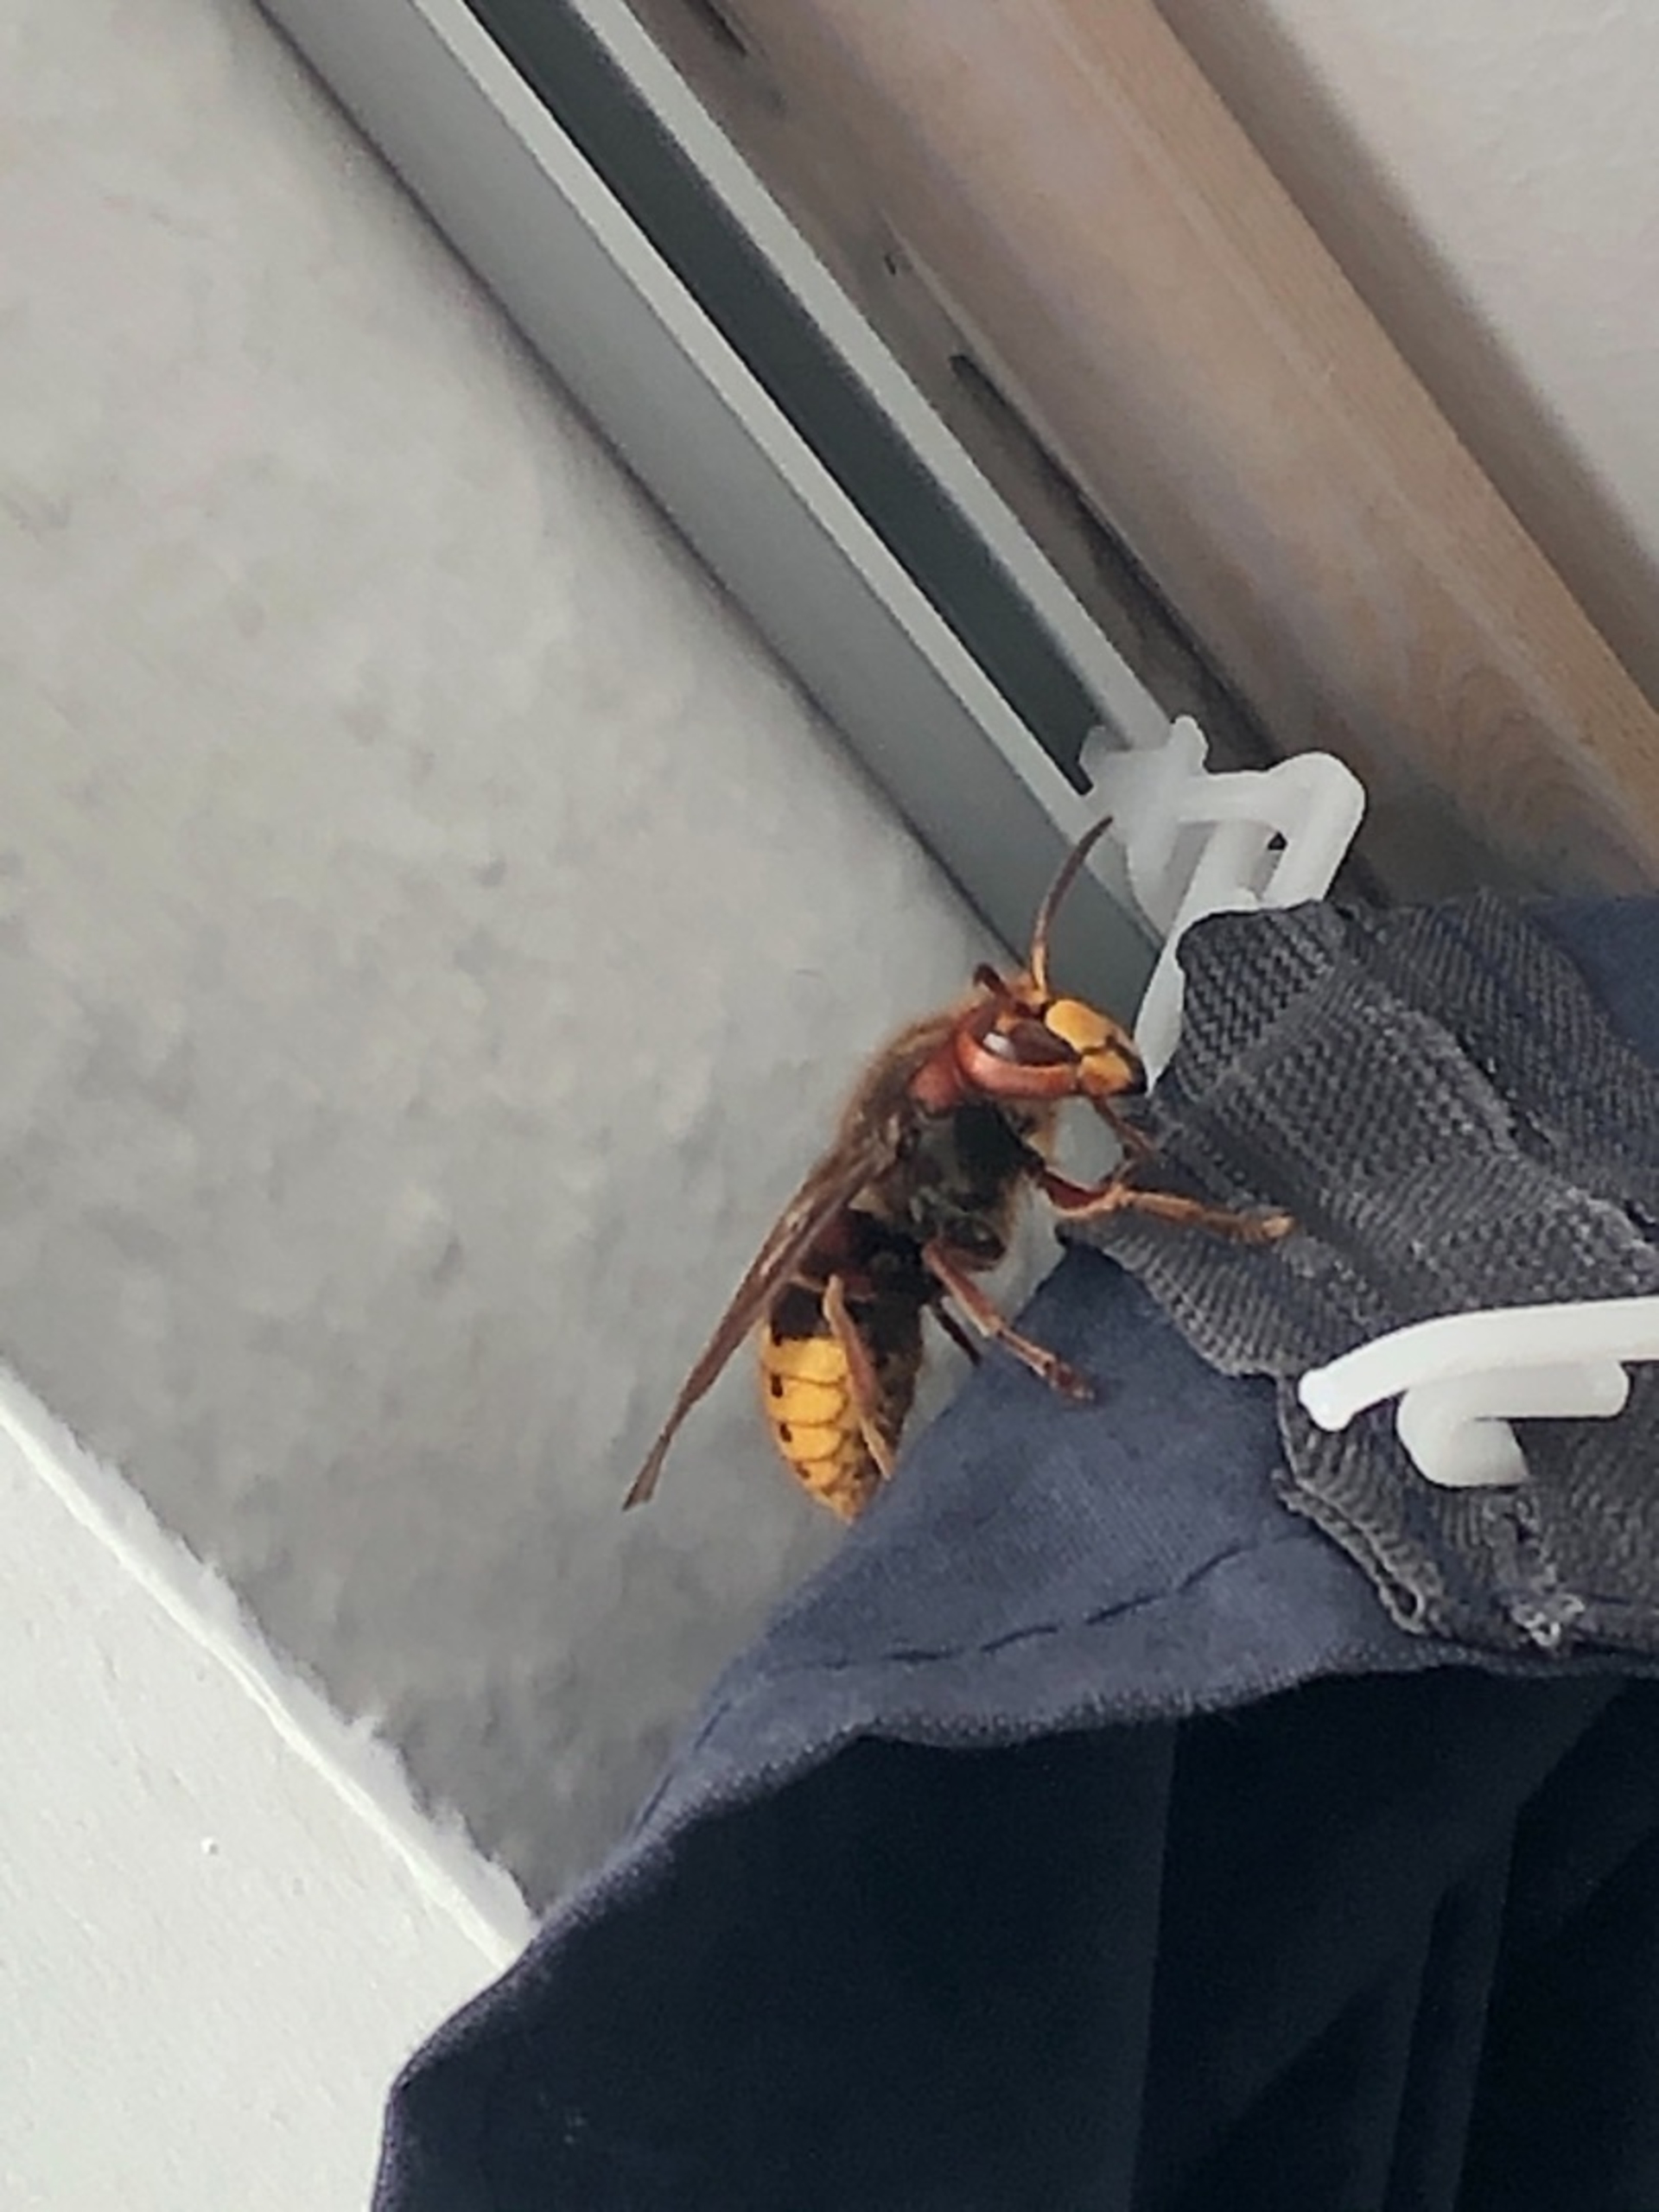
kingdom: Animalia
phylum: Arthropoda
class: Insecta
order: Hymenoptera
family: Vespidae
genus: Vespa
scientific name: Vespa crabro
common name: Stor gedehams
